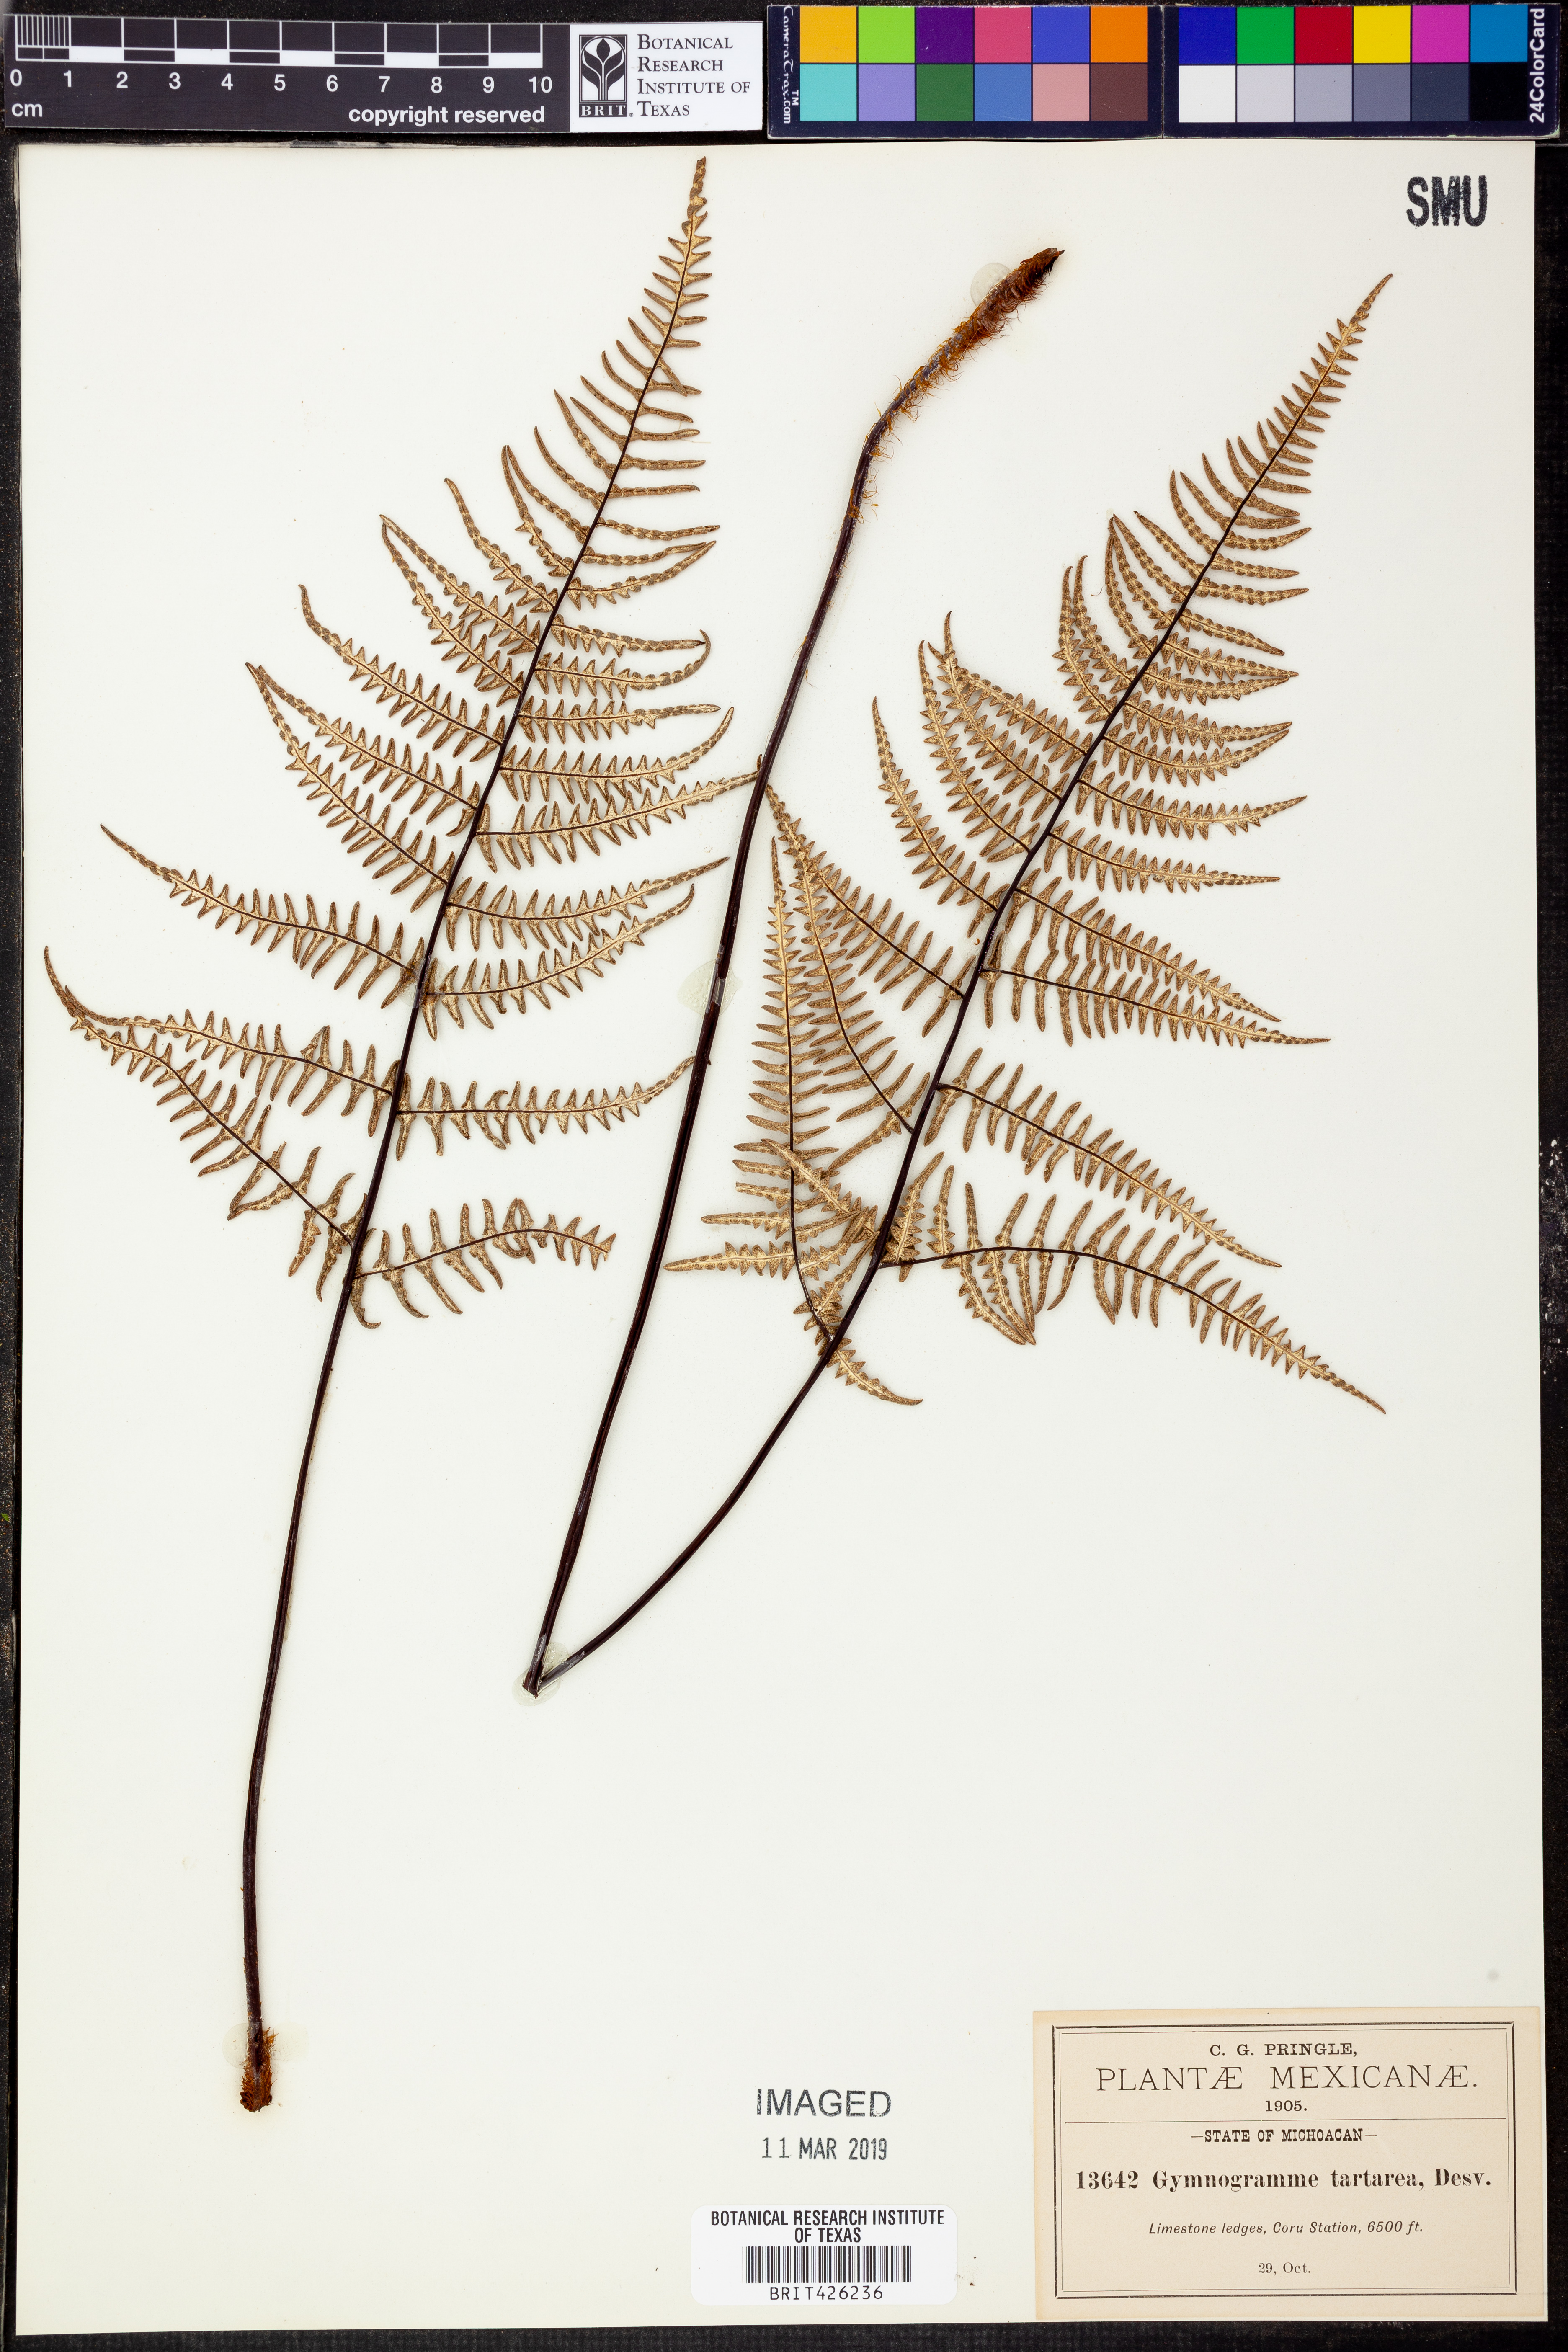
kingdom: Plantae
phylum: Tracheophyta
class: Polypodiopsida
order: Polypodiales
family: Pteridaceae
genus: Pityrogramma
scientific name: Pityrogramma ebenea
